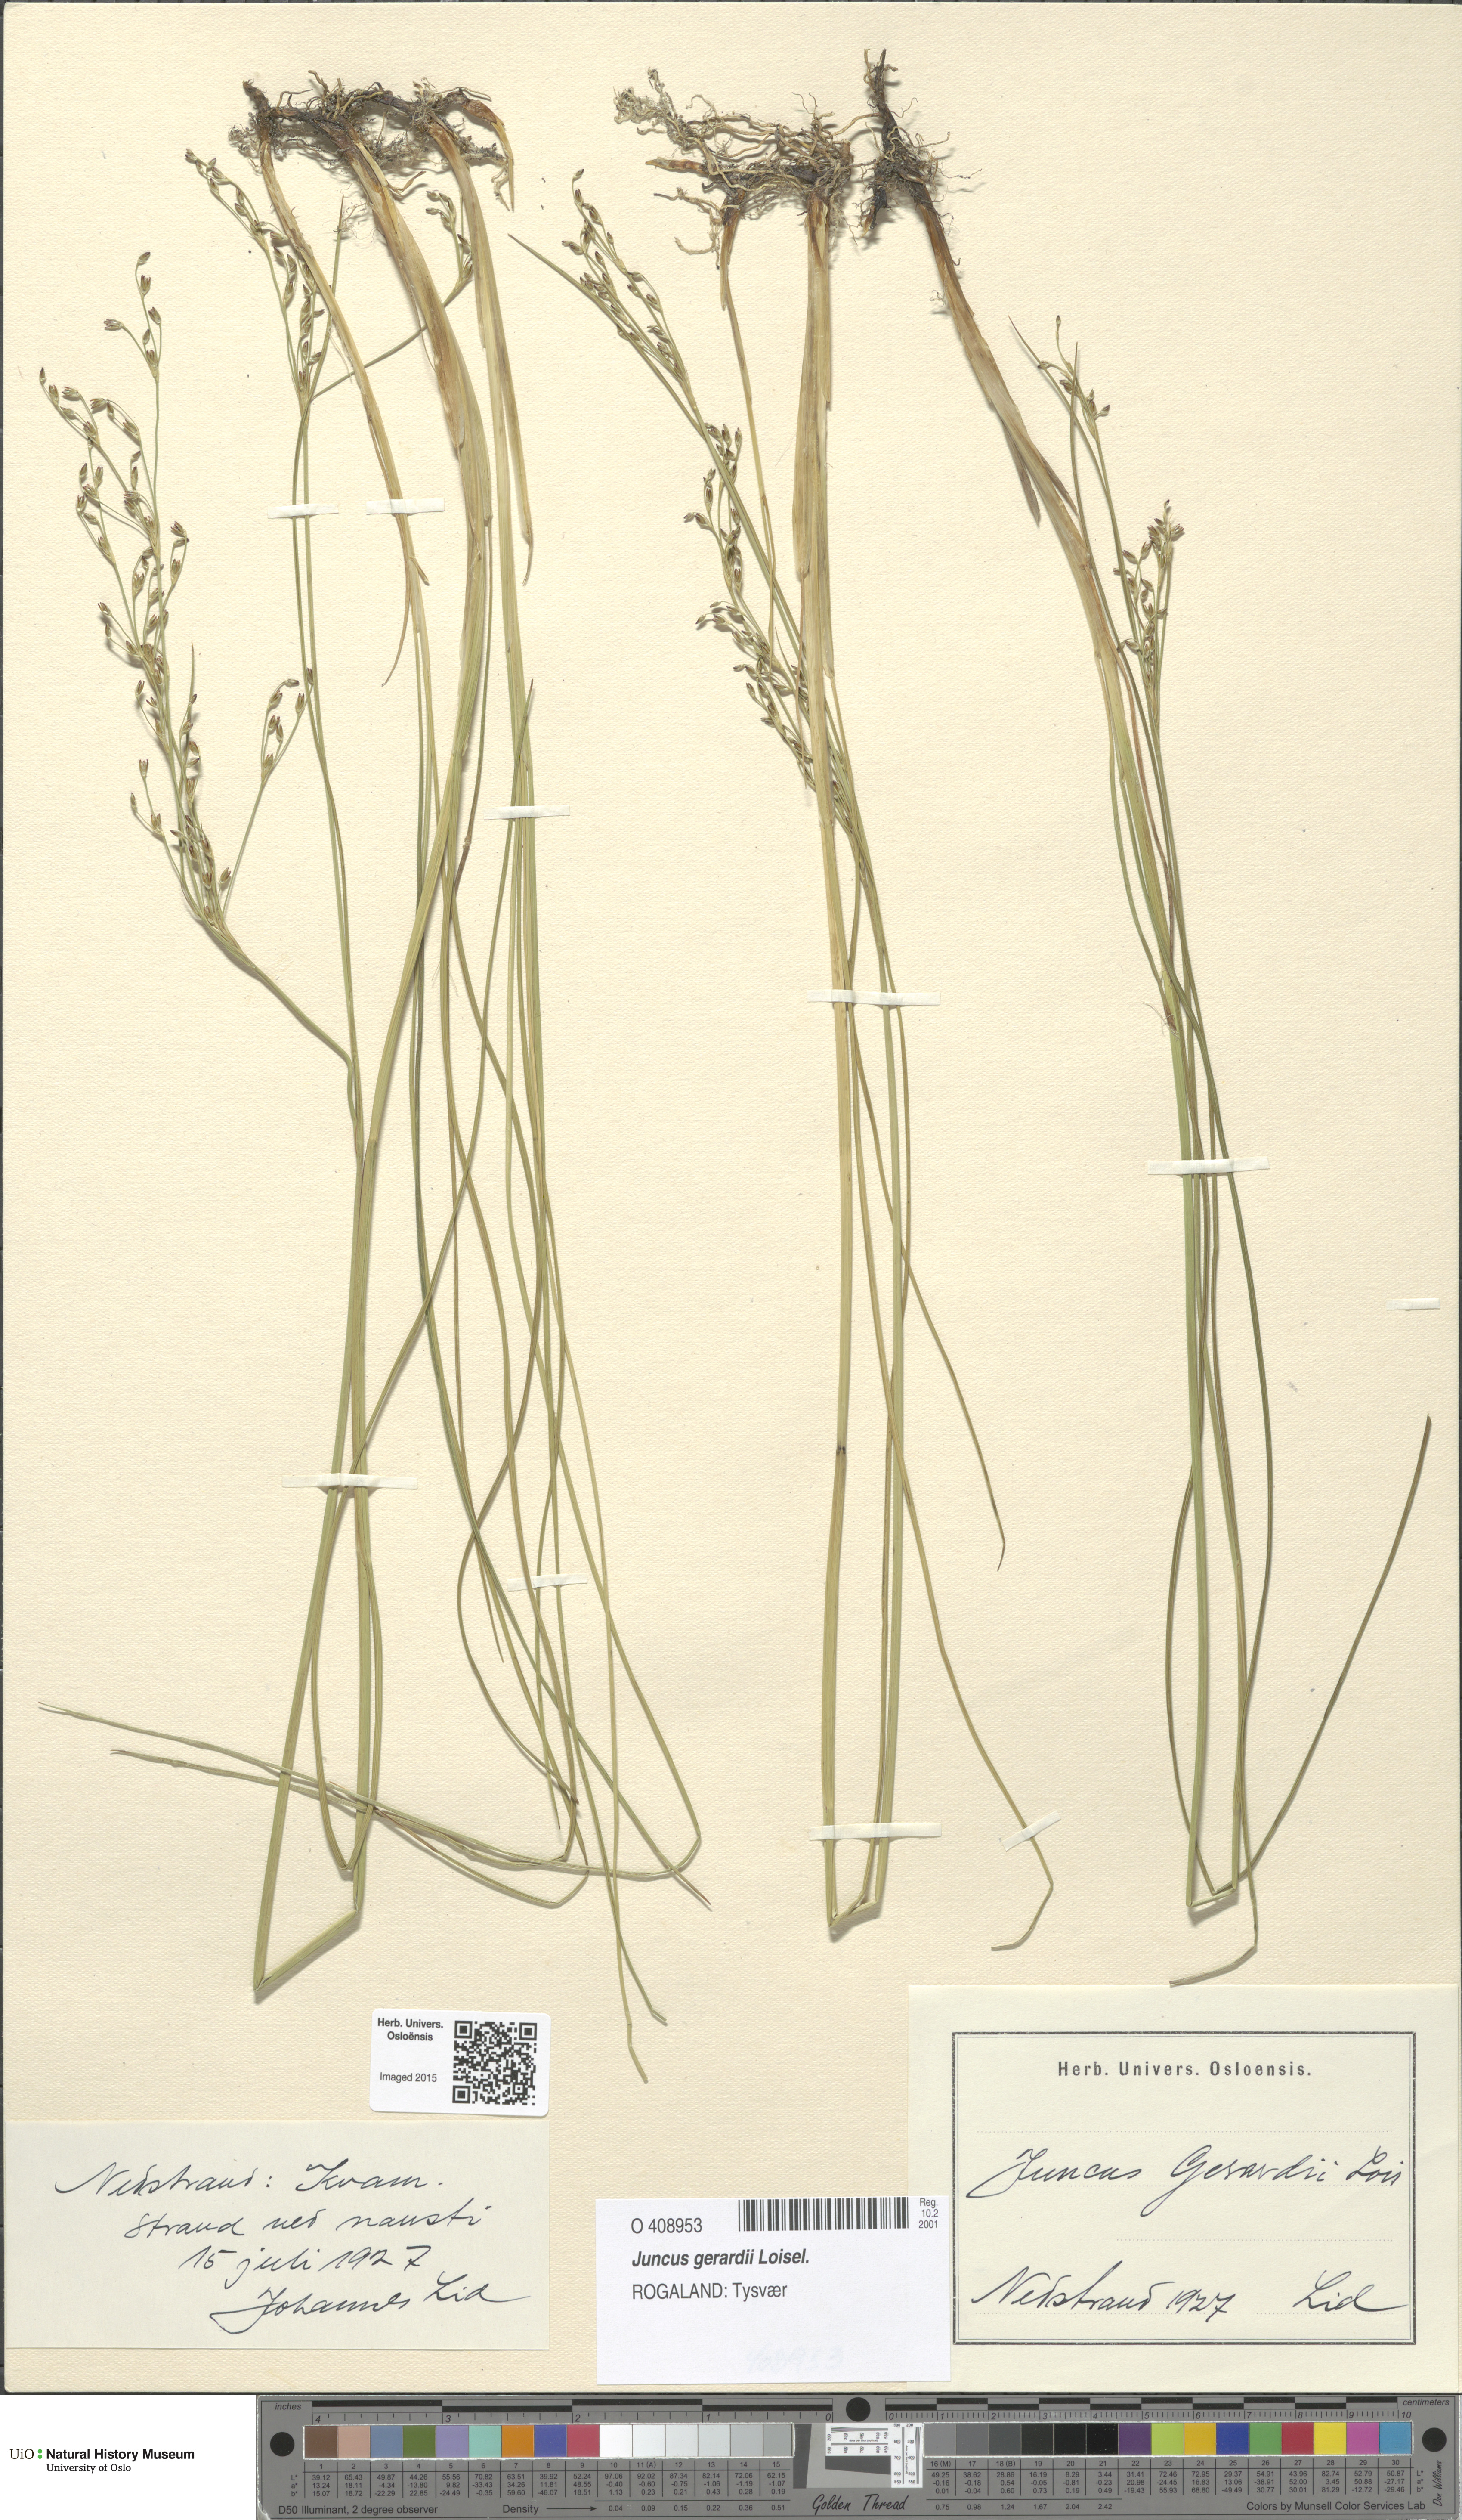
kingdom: Plantae
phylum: Tracheophyta
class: Liliopsida
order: Poales
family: Juncaceae
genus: Juncus
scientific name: Juncus gerardi
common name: Saltmarsh rush
